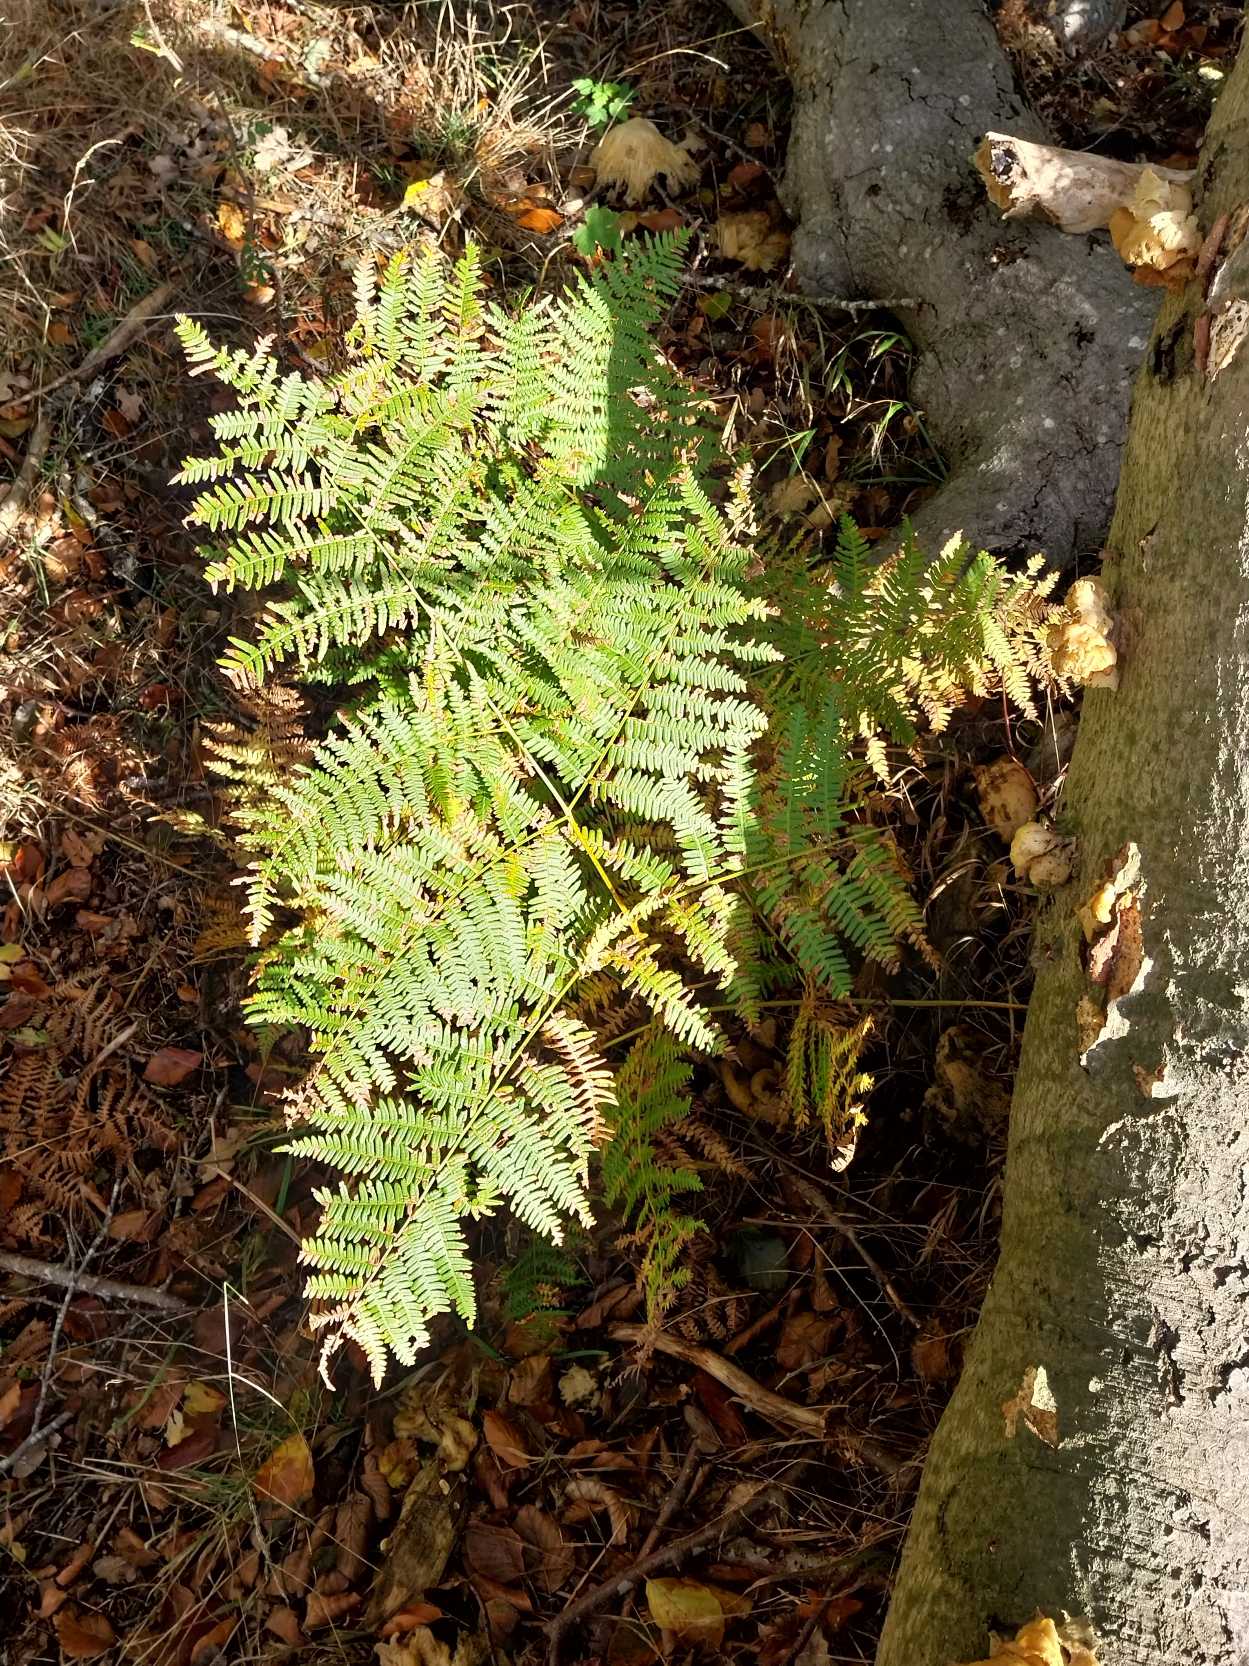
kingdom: Plantae
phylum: Tracheophyta
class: Polypodiopsida
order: Polypodiales
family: Dennstaedtiaceae
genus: Pteridium
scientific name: Pteridium aquilinum
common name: Ørnebregne
